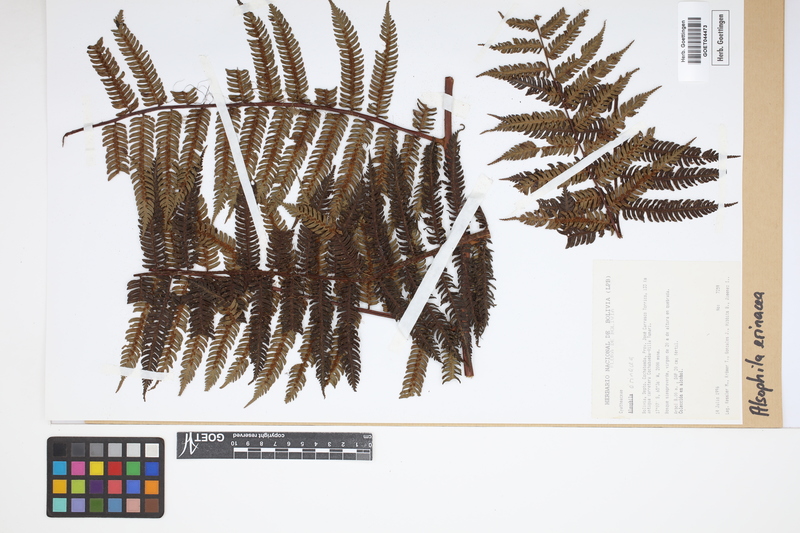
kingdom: Plantae
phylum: Tracheophyta
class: Polypodiopsida
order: Cyatheales
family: Cyatheaceae
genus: Alsophila
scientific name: Alsophila erinacea
